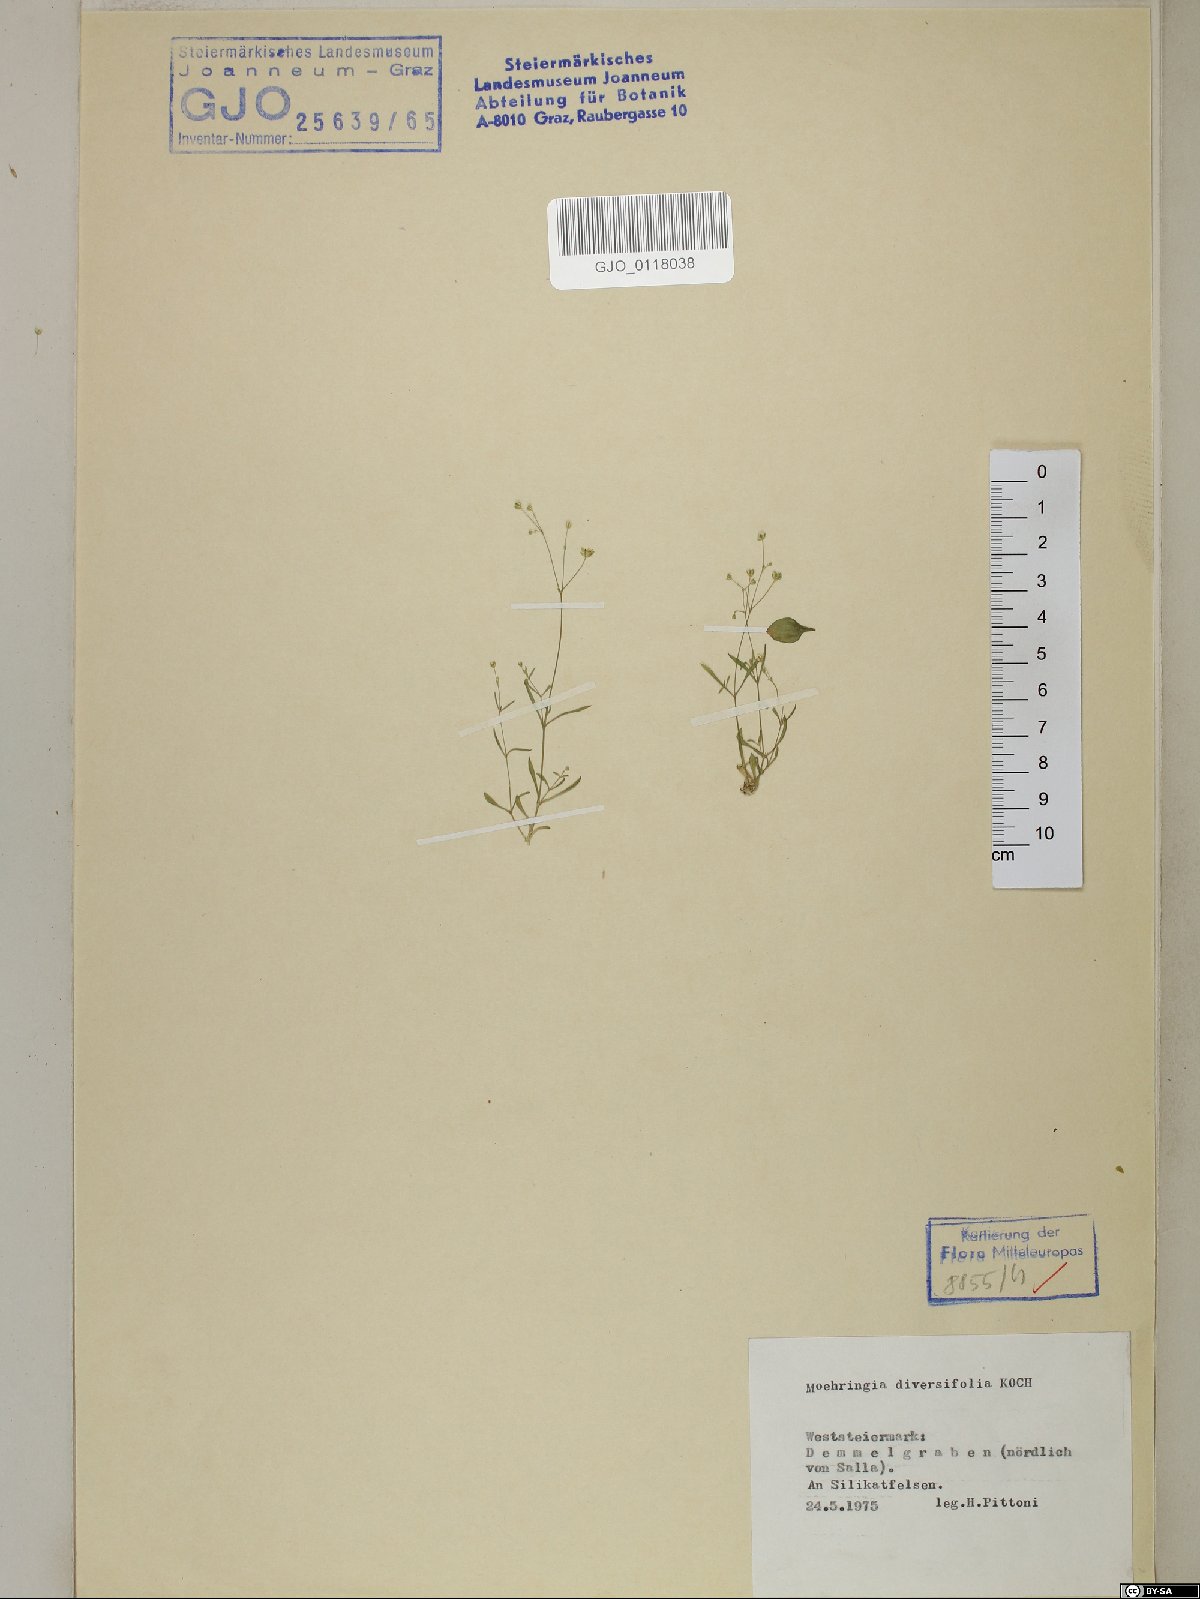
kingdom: Plantae
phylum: Tracheophyta
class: Magnoliopsida
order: Caryophyllales
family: Caryophyllaceae
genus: Moehringia
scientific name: Moehringia diversifolia
